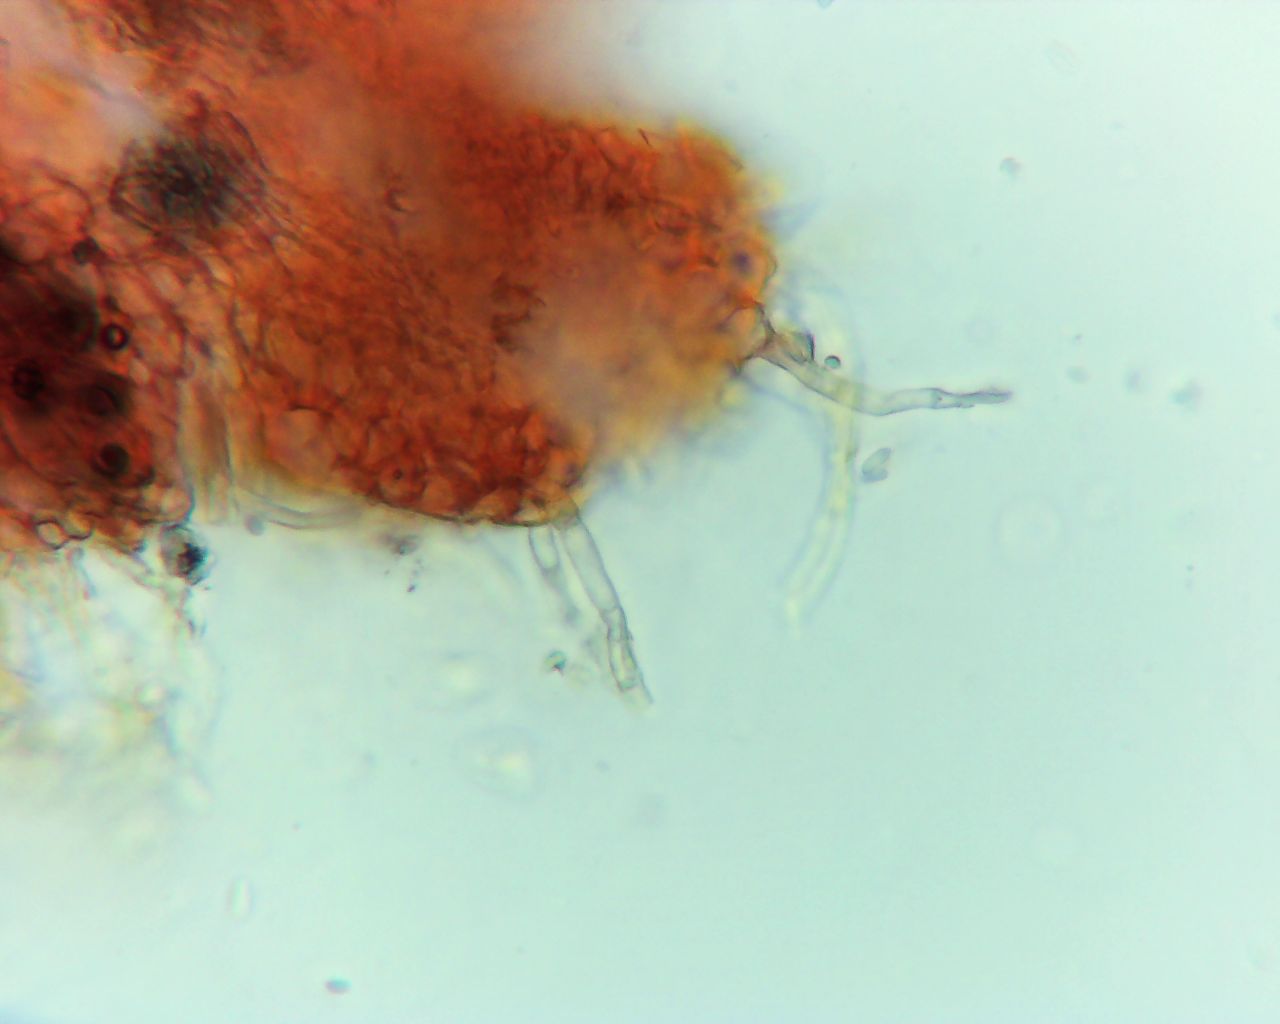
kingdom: Fungi
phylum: Ascomycota
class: Sordariomycetes
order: Hypocreales
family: Nectriaceae
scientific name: Nectriaceae
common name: cinnobersvampfamilien
